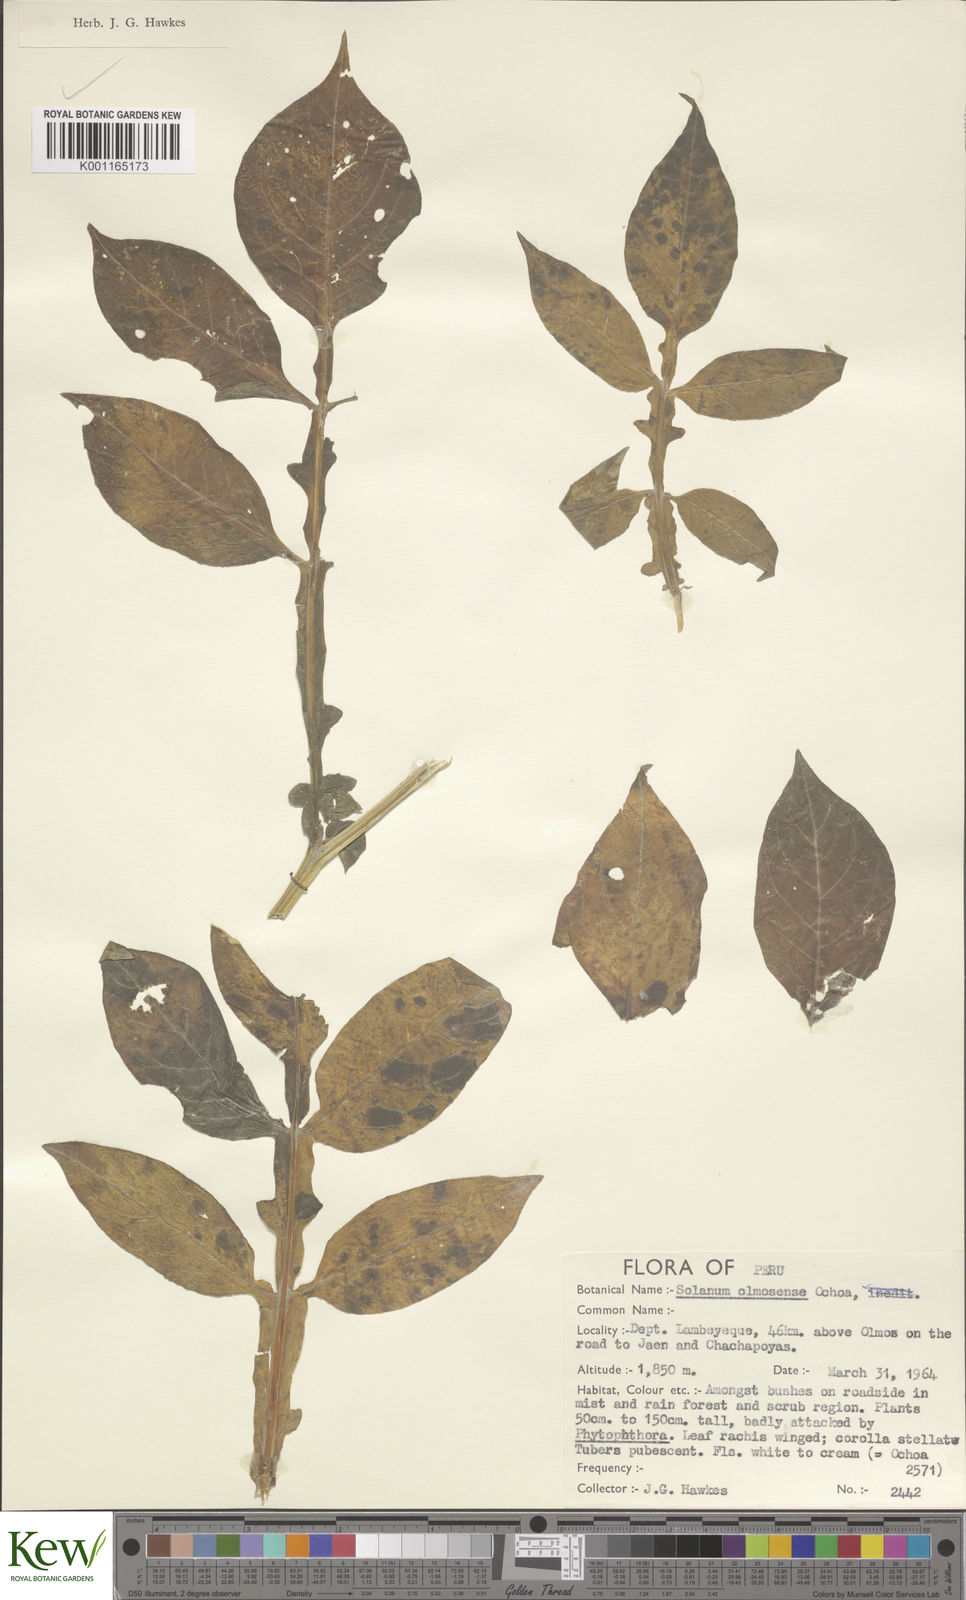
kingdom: Plantae
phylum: Tracheophyta
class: Magnoliopsida
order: Solanales
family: Solanaceae
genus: Solanum
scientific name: Solanum olmosense
